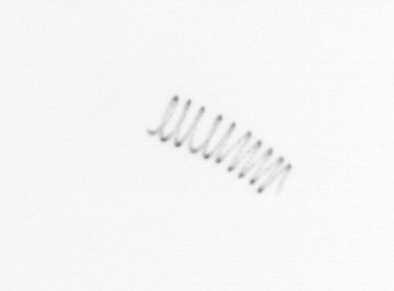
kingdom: Chromista
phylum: Ochrophyta
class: Bacillariophyceae
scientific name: Bacillariophyceae
